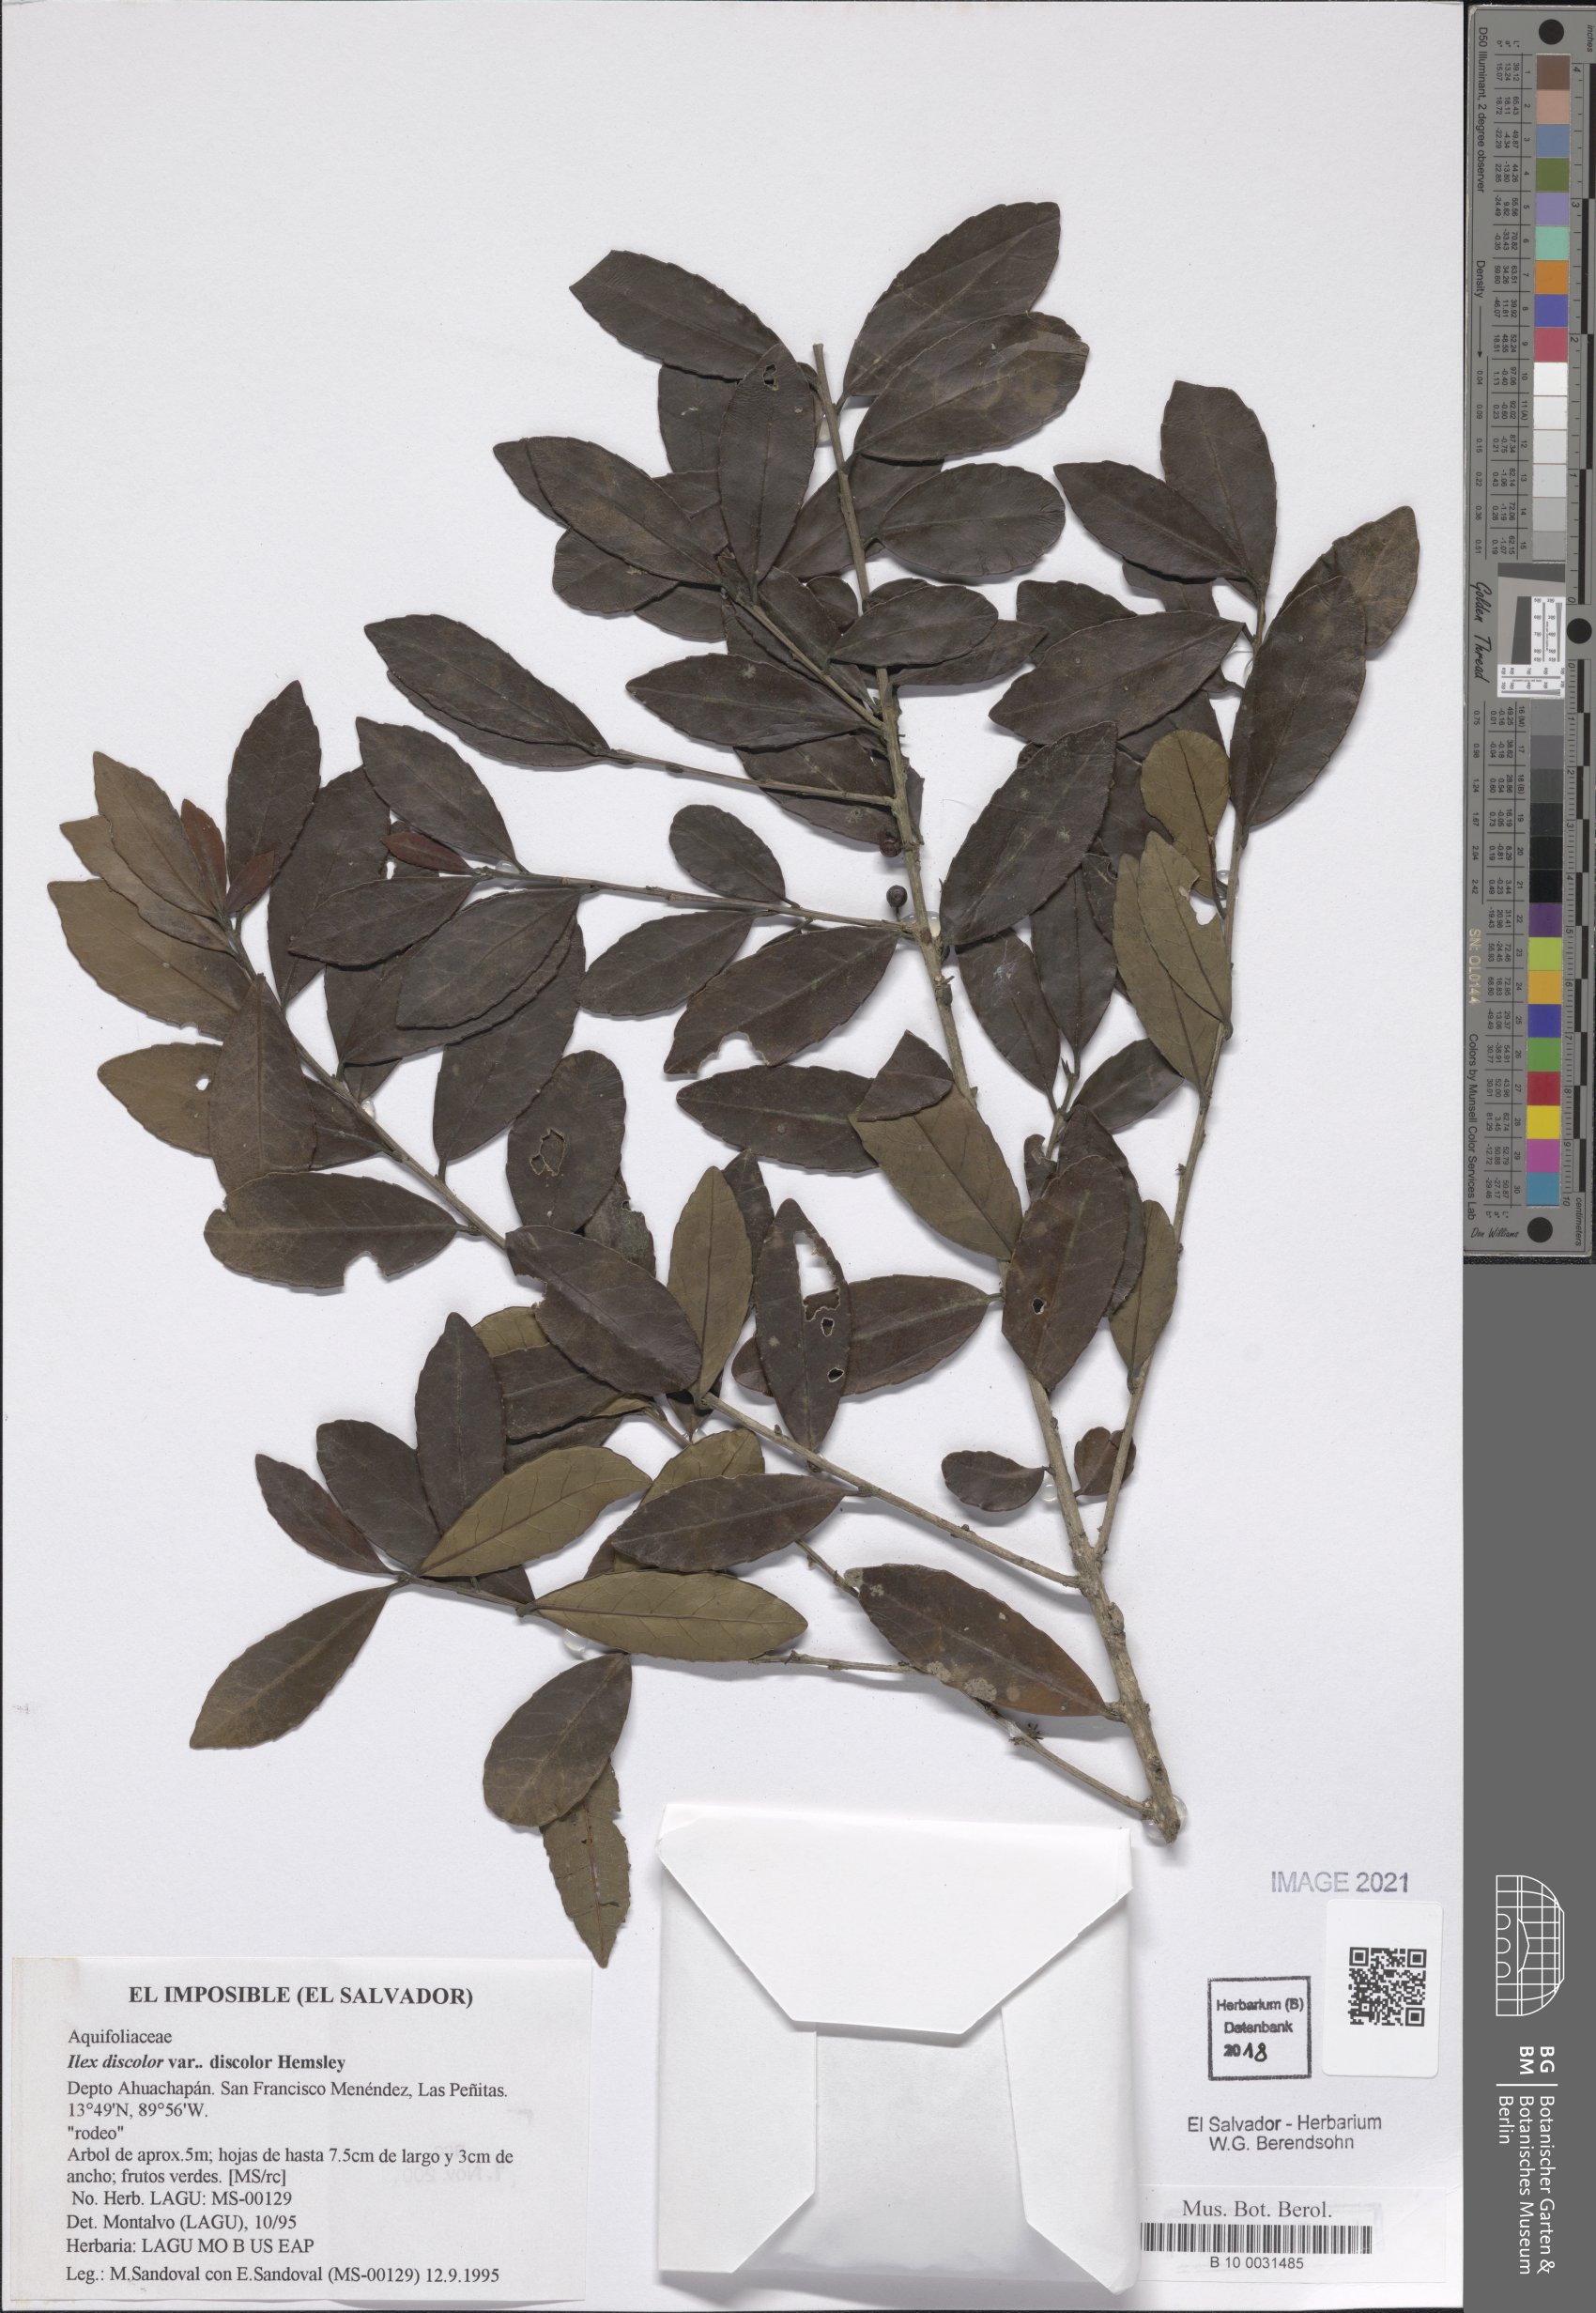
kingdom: Plantae
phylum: Tracheophyta
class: Magnoliopsida
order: Aquifoliales
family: Aquifoliaceae
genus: Ilex
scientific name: Ilex discolor
